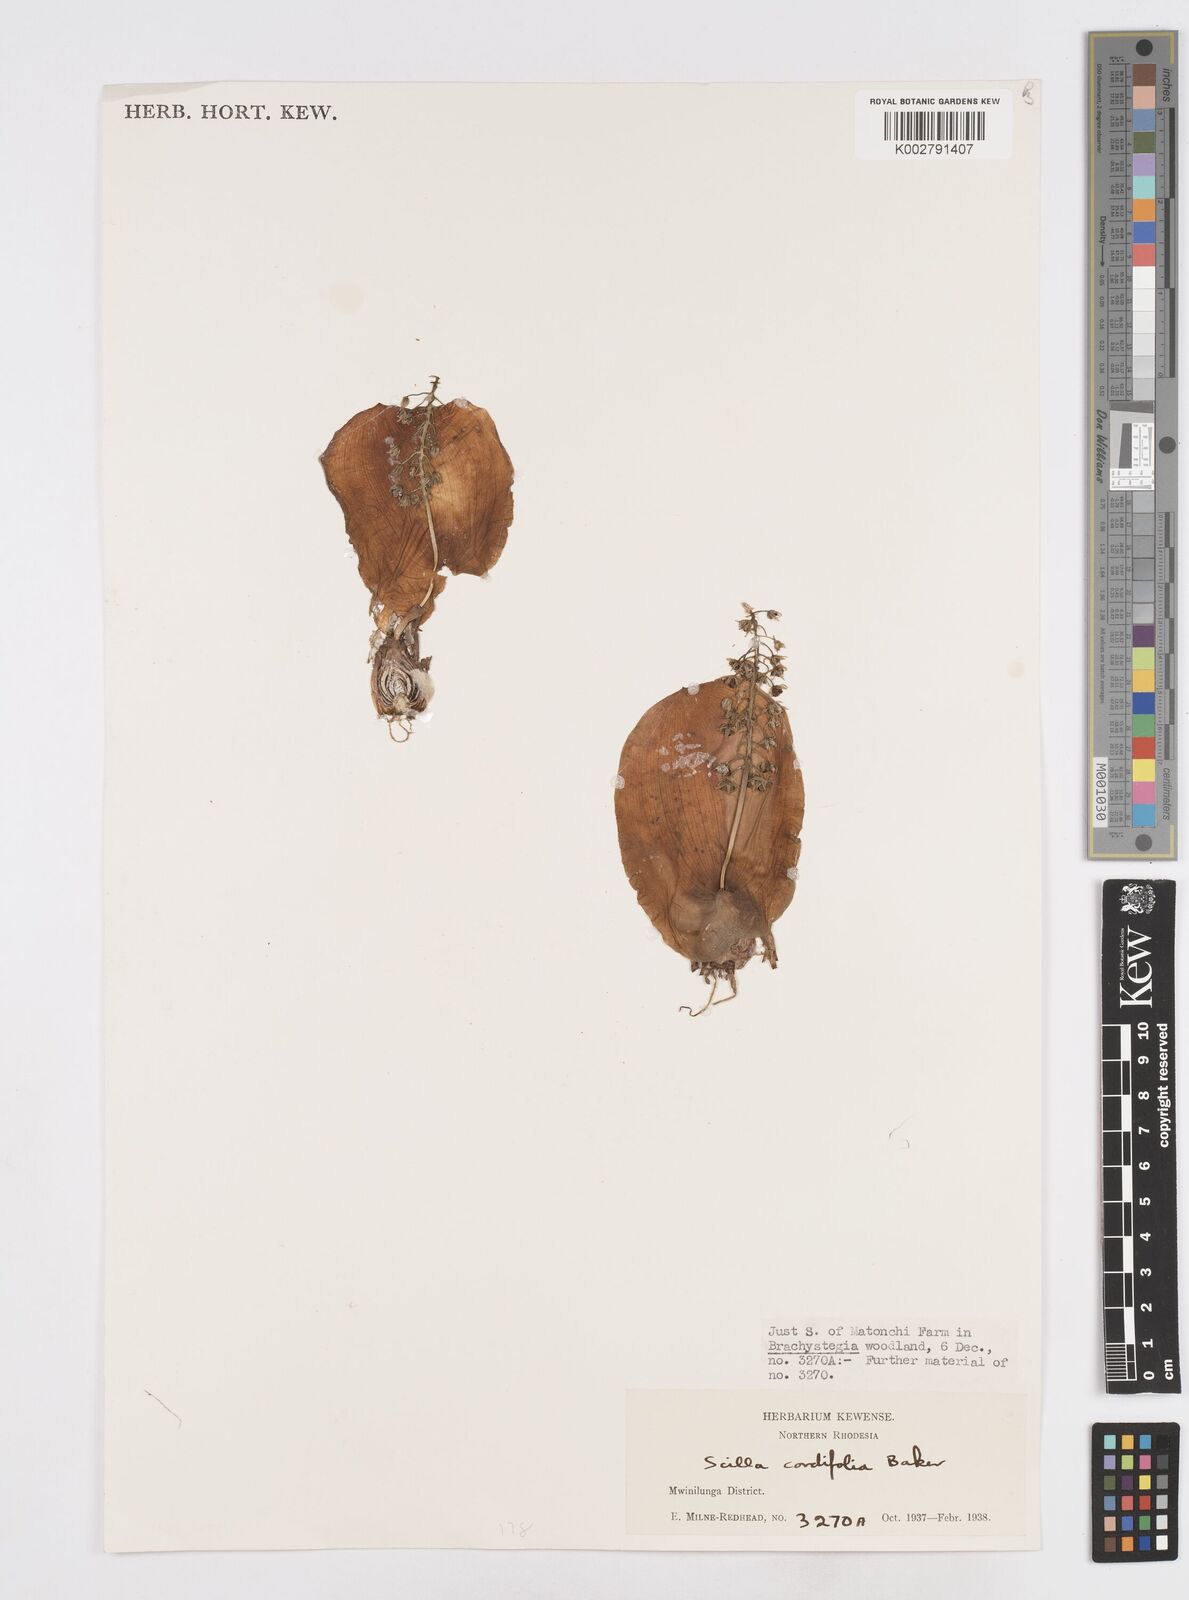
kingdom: Plantae
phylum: Tracheophyta
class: Liliopsida
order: Asparagales
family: Asparagaceae
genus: Ledebouria
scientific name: Ledebouria cordifolia
